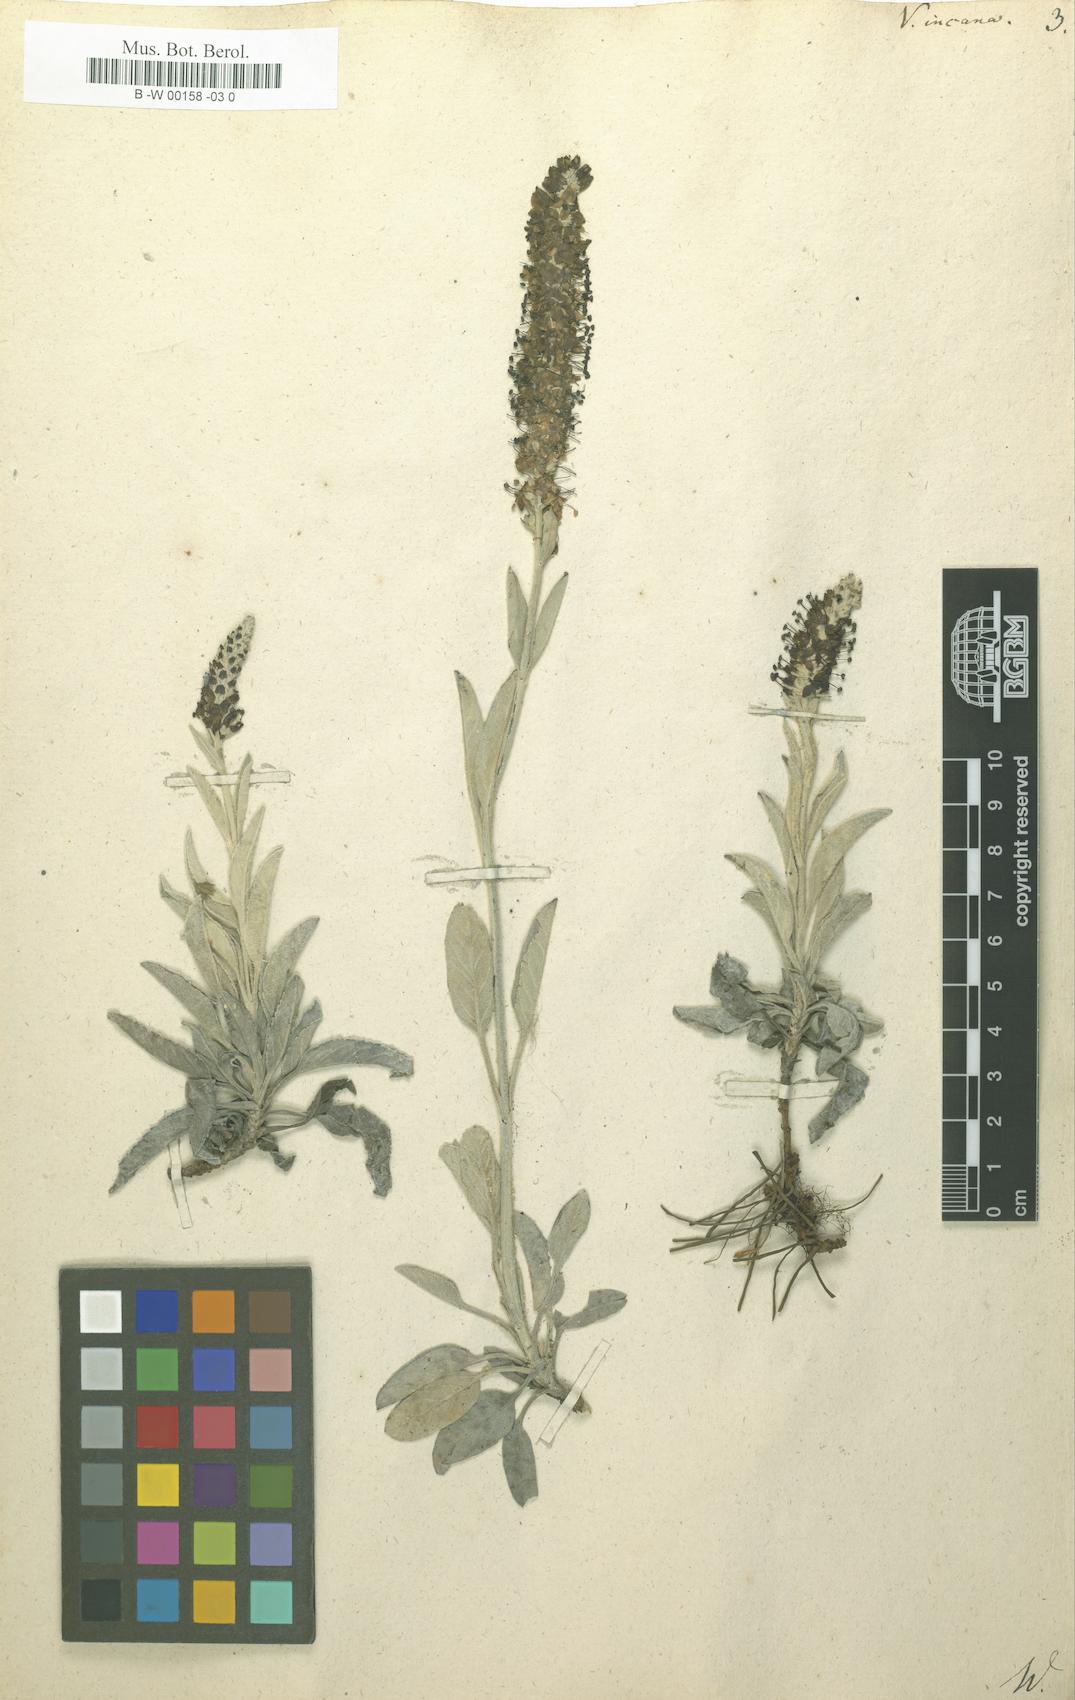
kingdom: Plantae
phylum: Tracheophyta
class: Magnoliopsida
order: Lamiales
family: Plantaginaceae
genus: Veronica
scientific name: Veronica incana
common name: Silver speedwell
